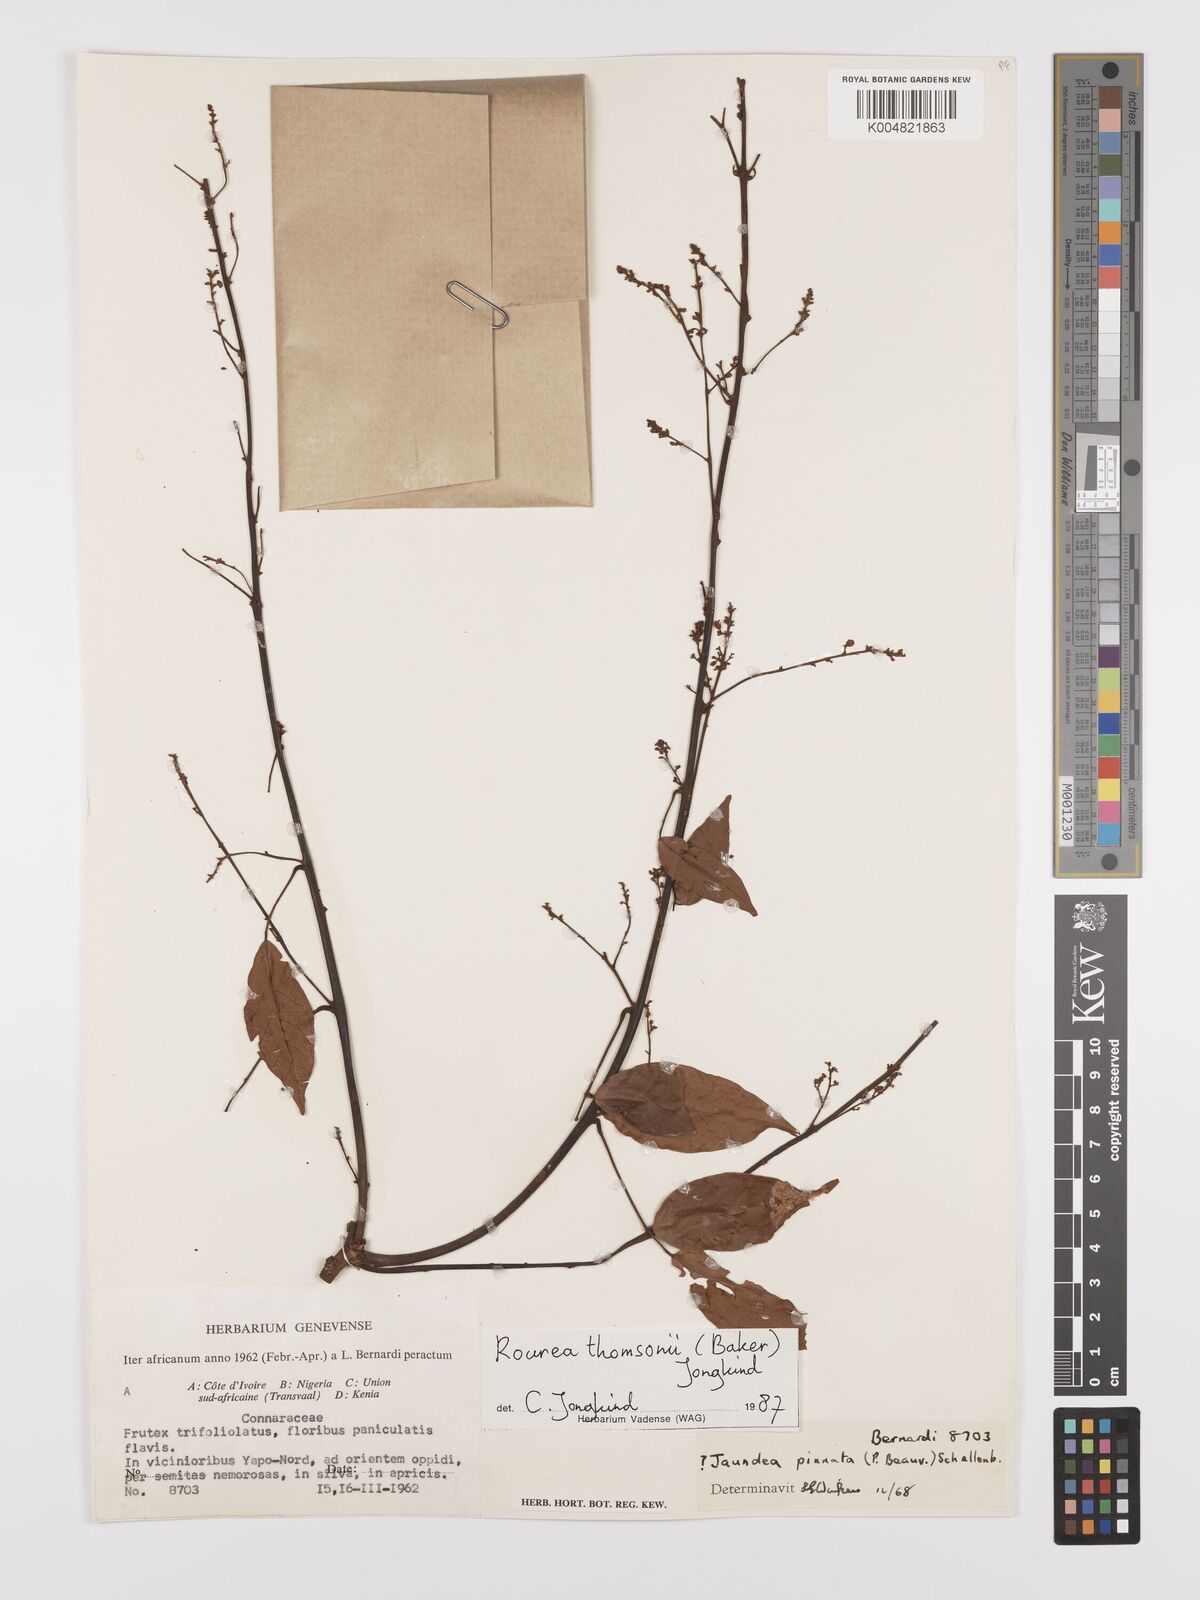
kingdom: Plantae
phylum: Tracheophyta
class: Magnoliopsida
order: Oxalidales
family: Connaraceae
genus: Rourea
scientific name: Rourea pinnata
